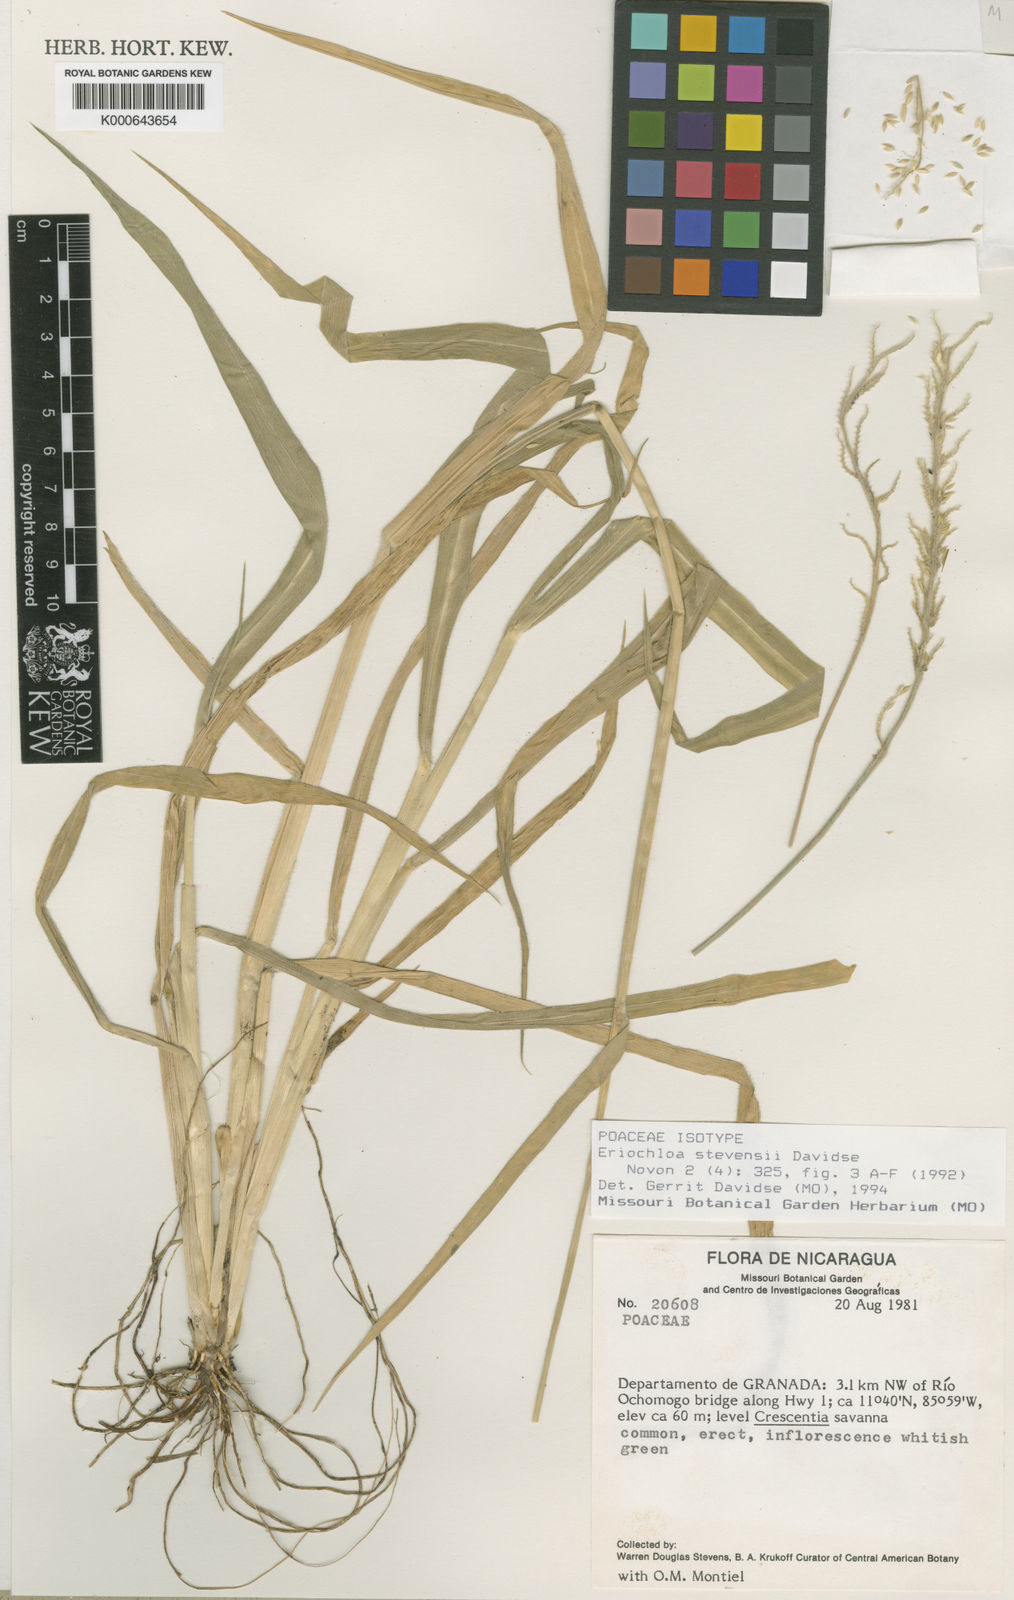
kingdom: Plantae
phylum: Tracheophyta
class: Liliopsida
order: Poales
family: Poaceae
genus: Eriochloa
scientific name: Eriochloa stevensii
